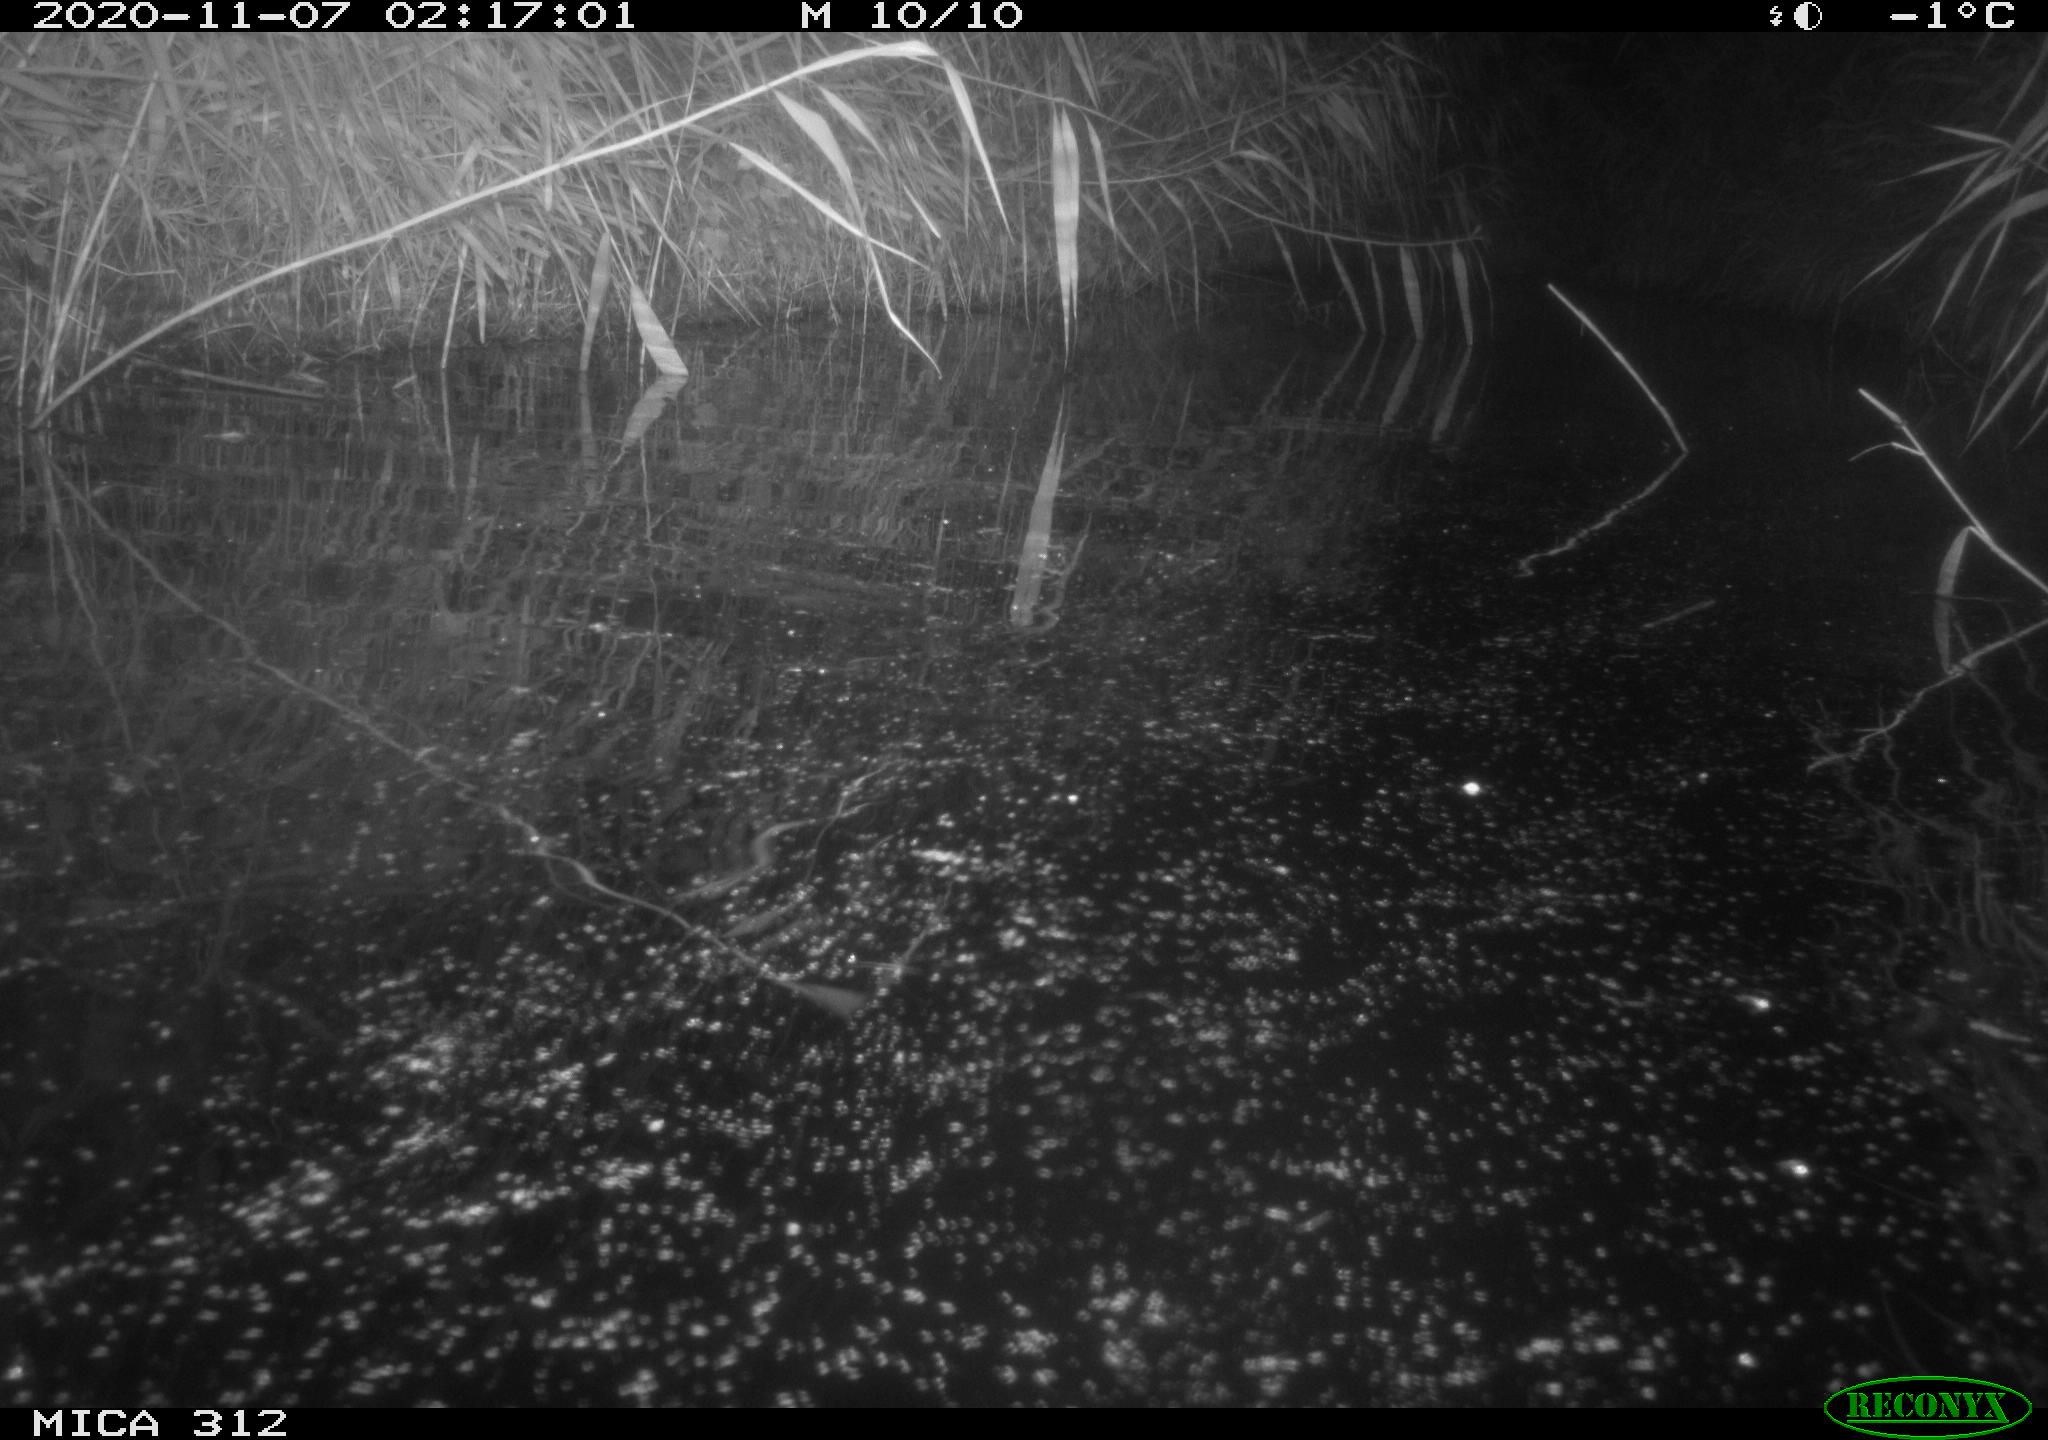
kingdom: Animalia
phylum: Chordata
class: Mammalia
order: Rodentia
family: Cricetidae
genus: Ondatra
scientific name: Ondatra zibethicus
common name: Muskrat
